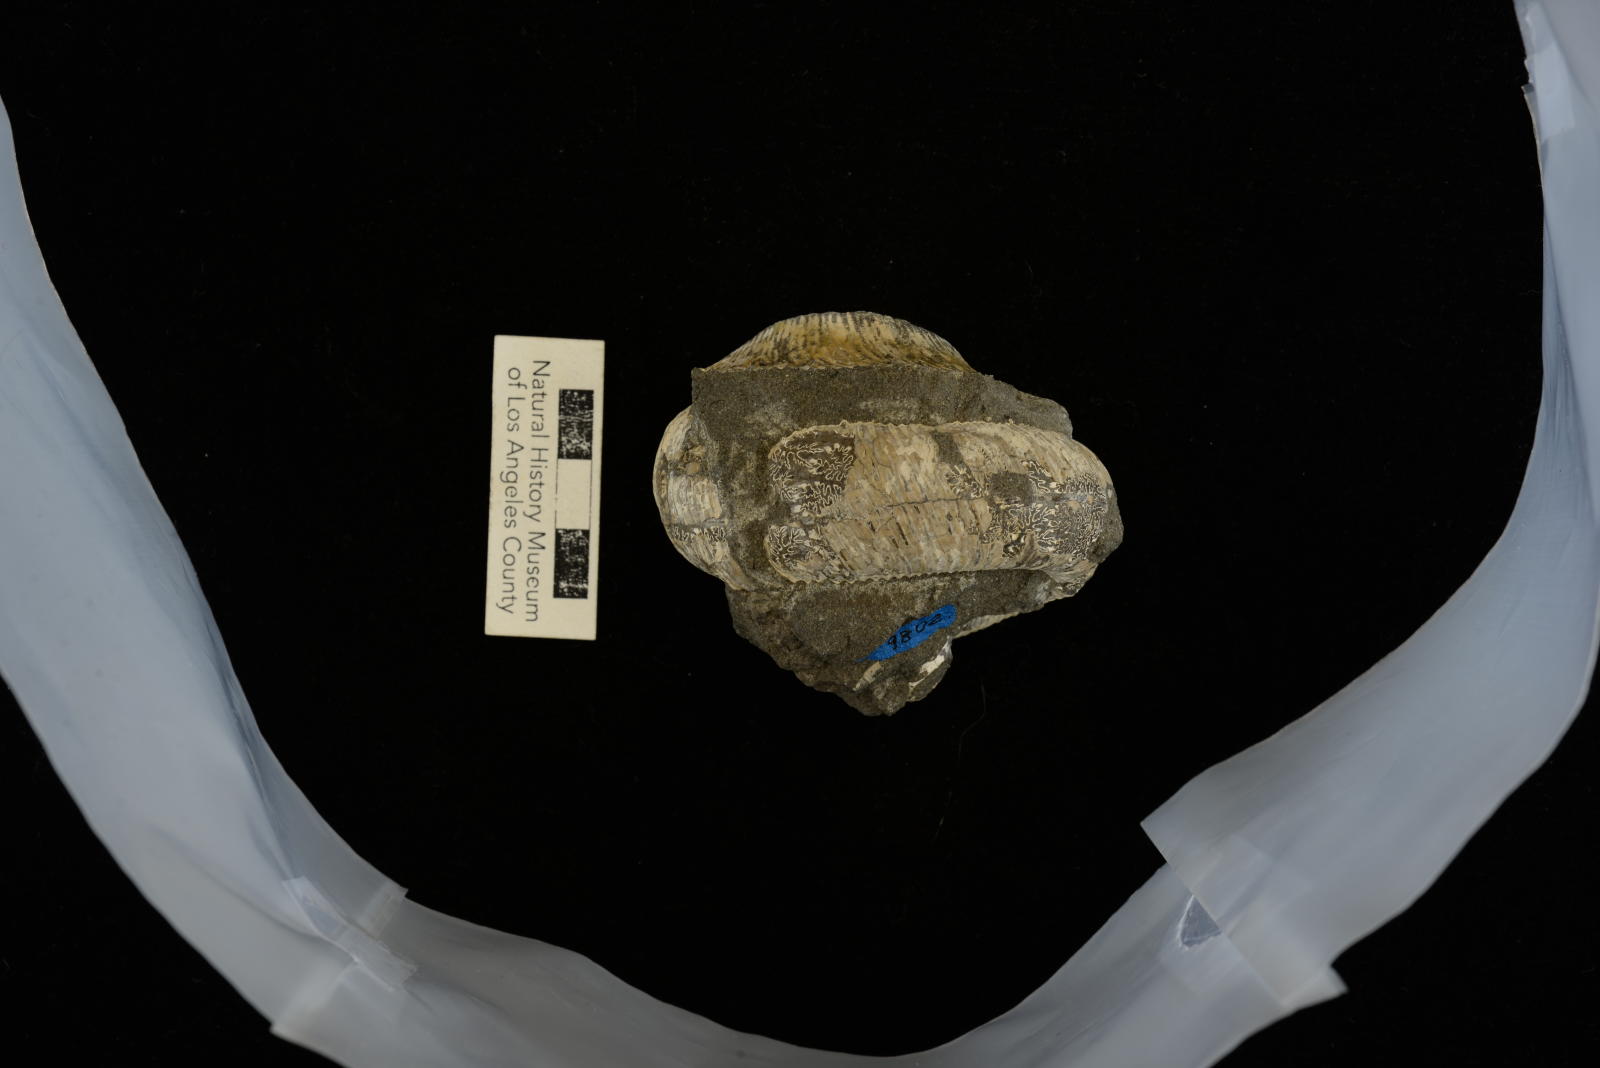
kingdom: Animalia
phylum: Mollusca
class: Cephalopoda
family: Nostoceratidae
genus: Bostrychoceras
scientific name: Bostrychoceras Heteroceras otsukai
